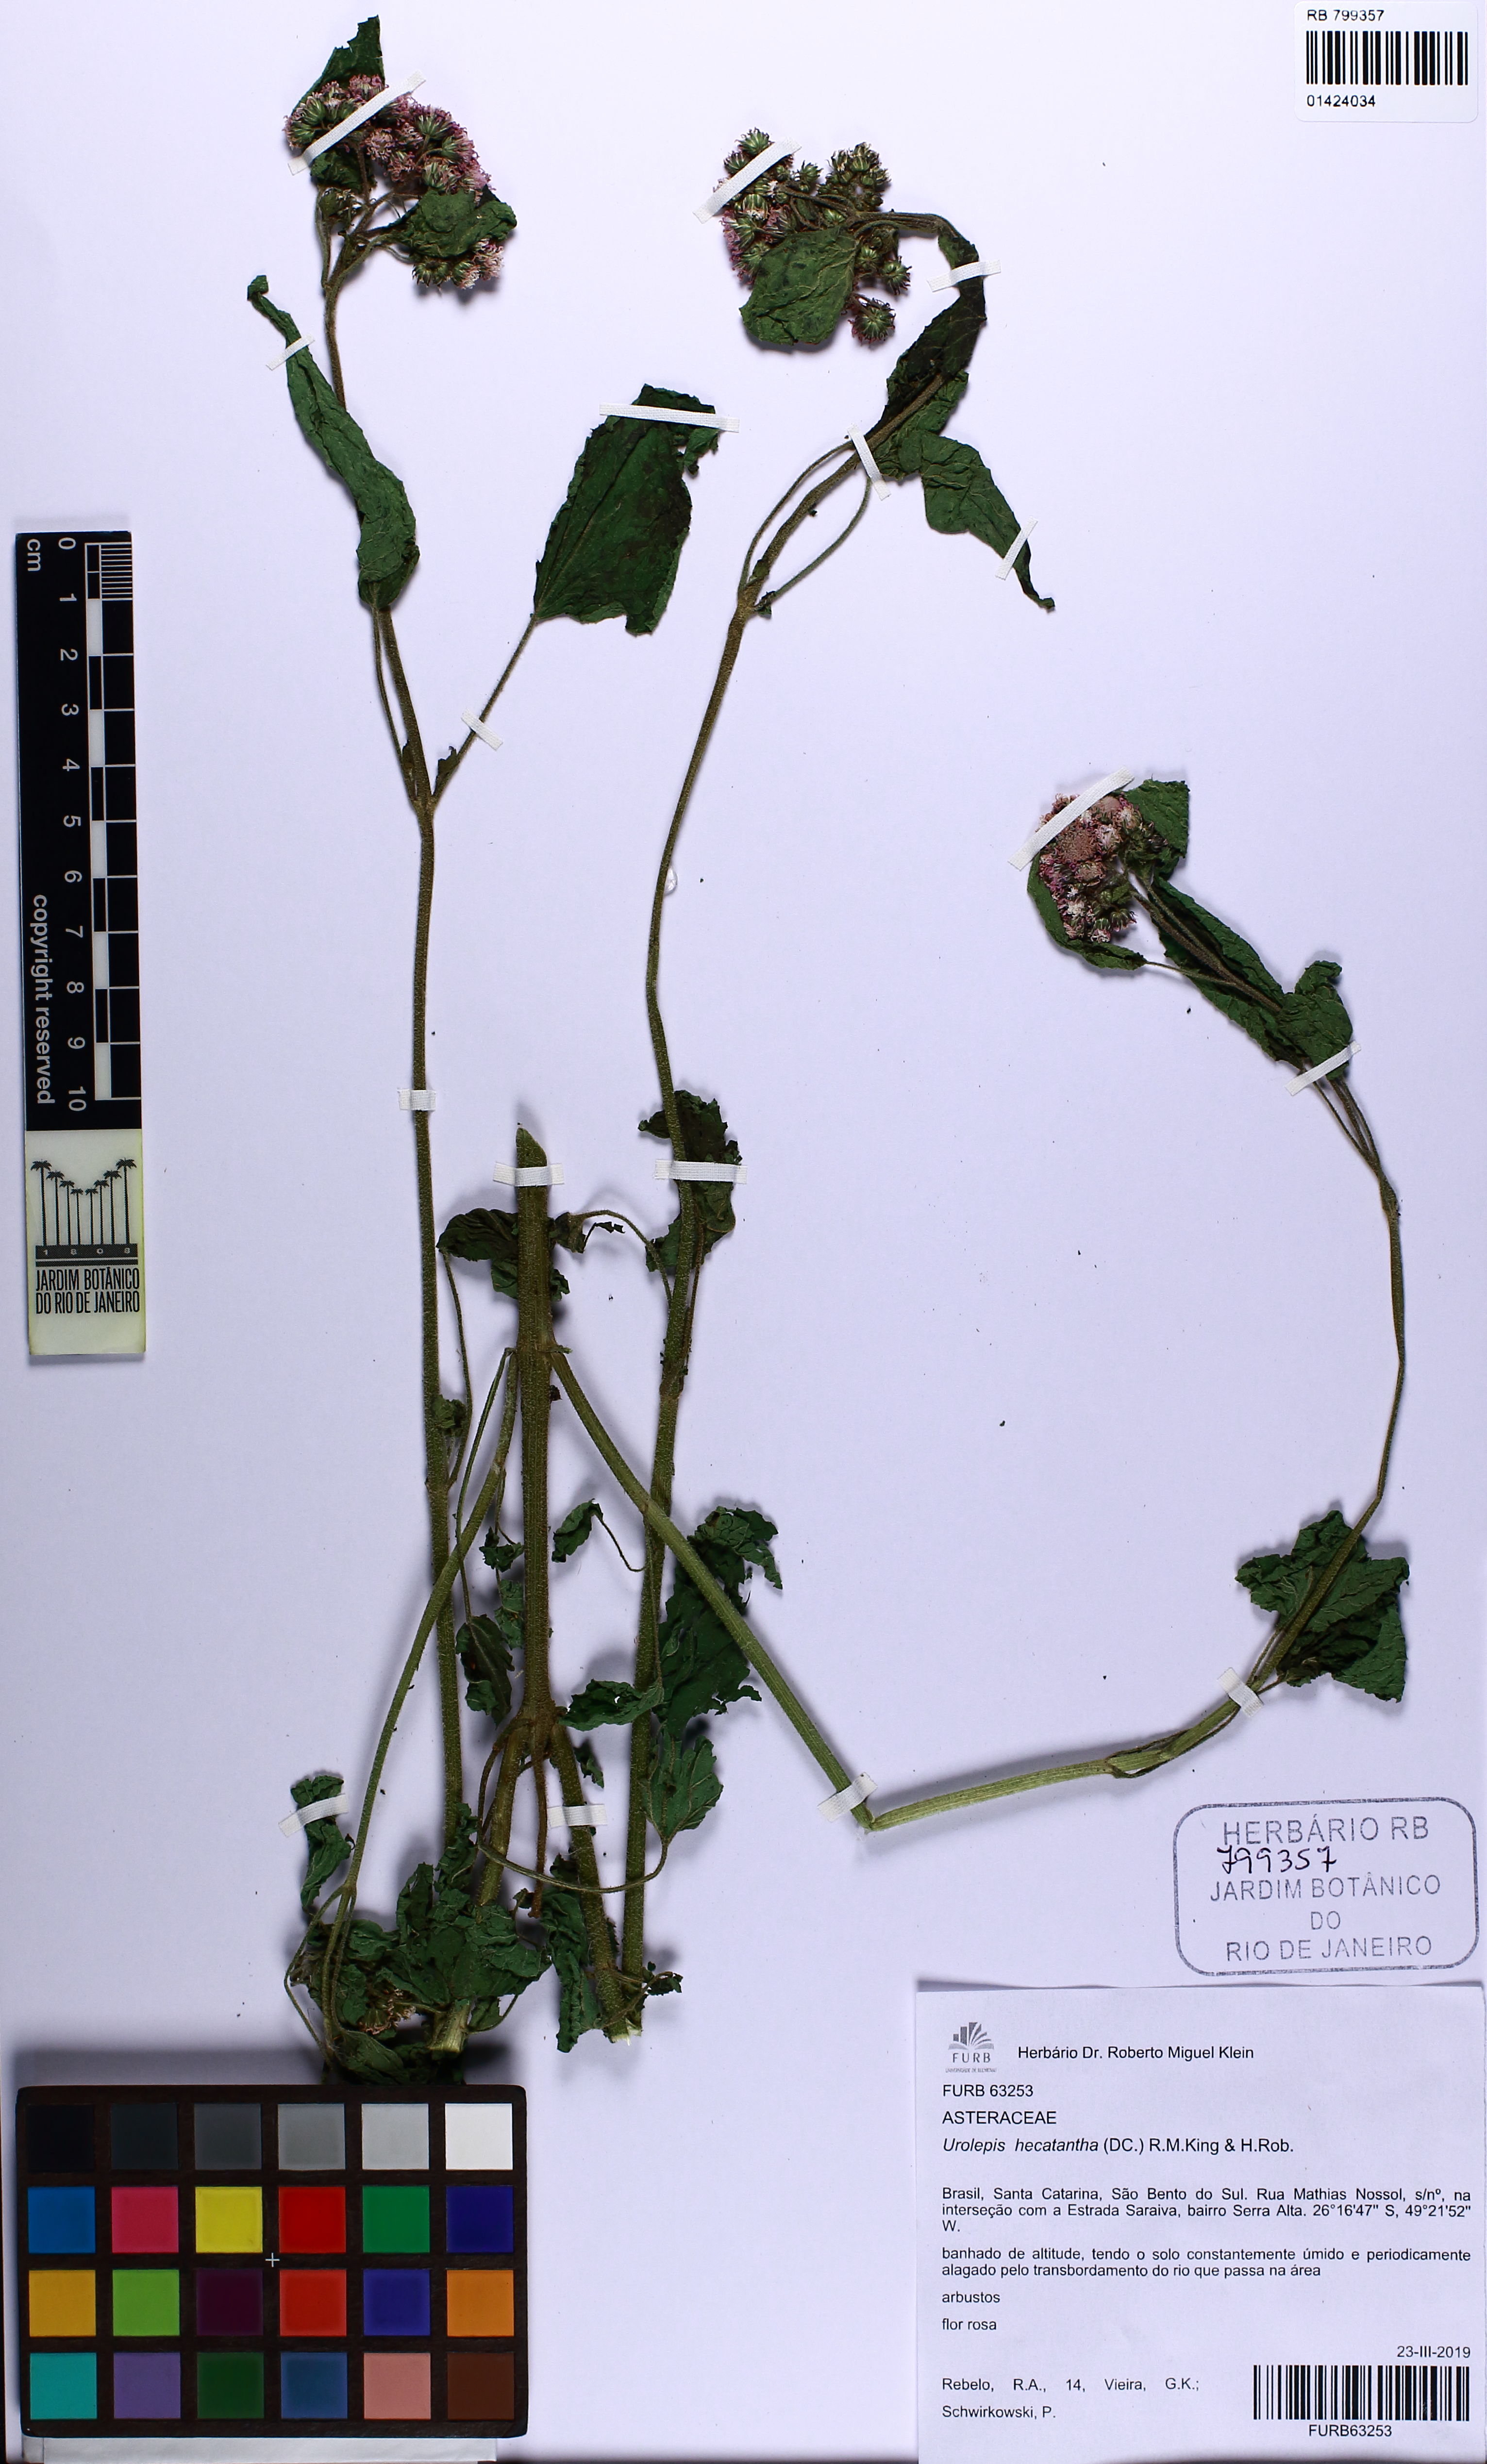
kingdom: Plantae
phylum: Tracheophyta
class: Magnoliopsida
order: Asterales
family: Asteraceae
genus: Urolepis
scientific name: Urolepis hecatantha
